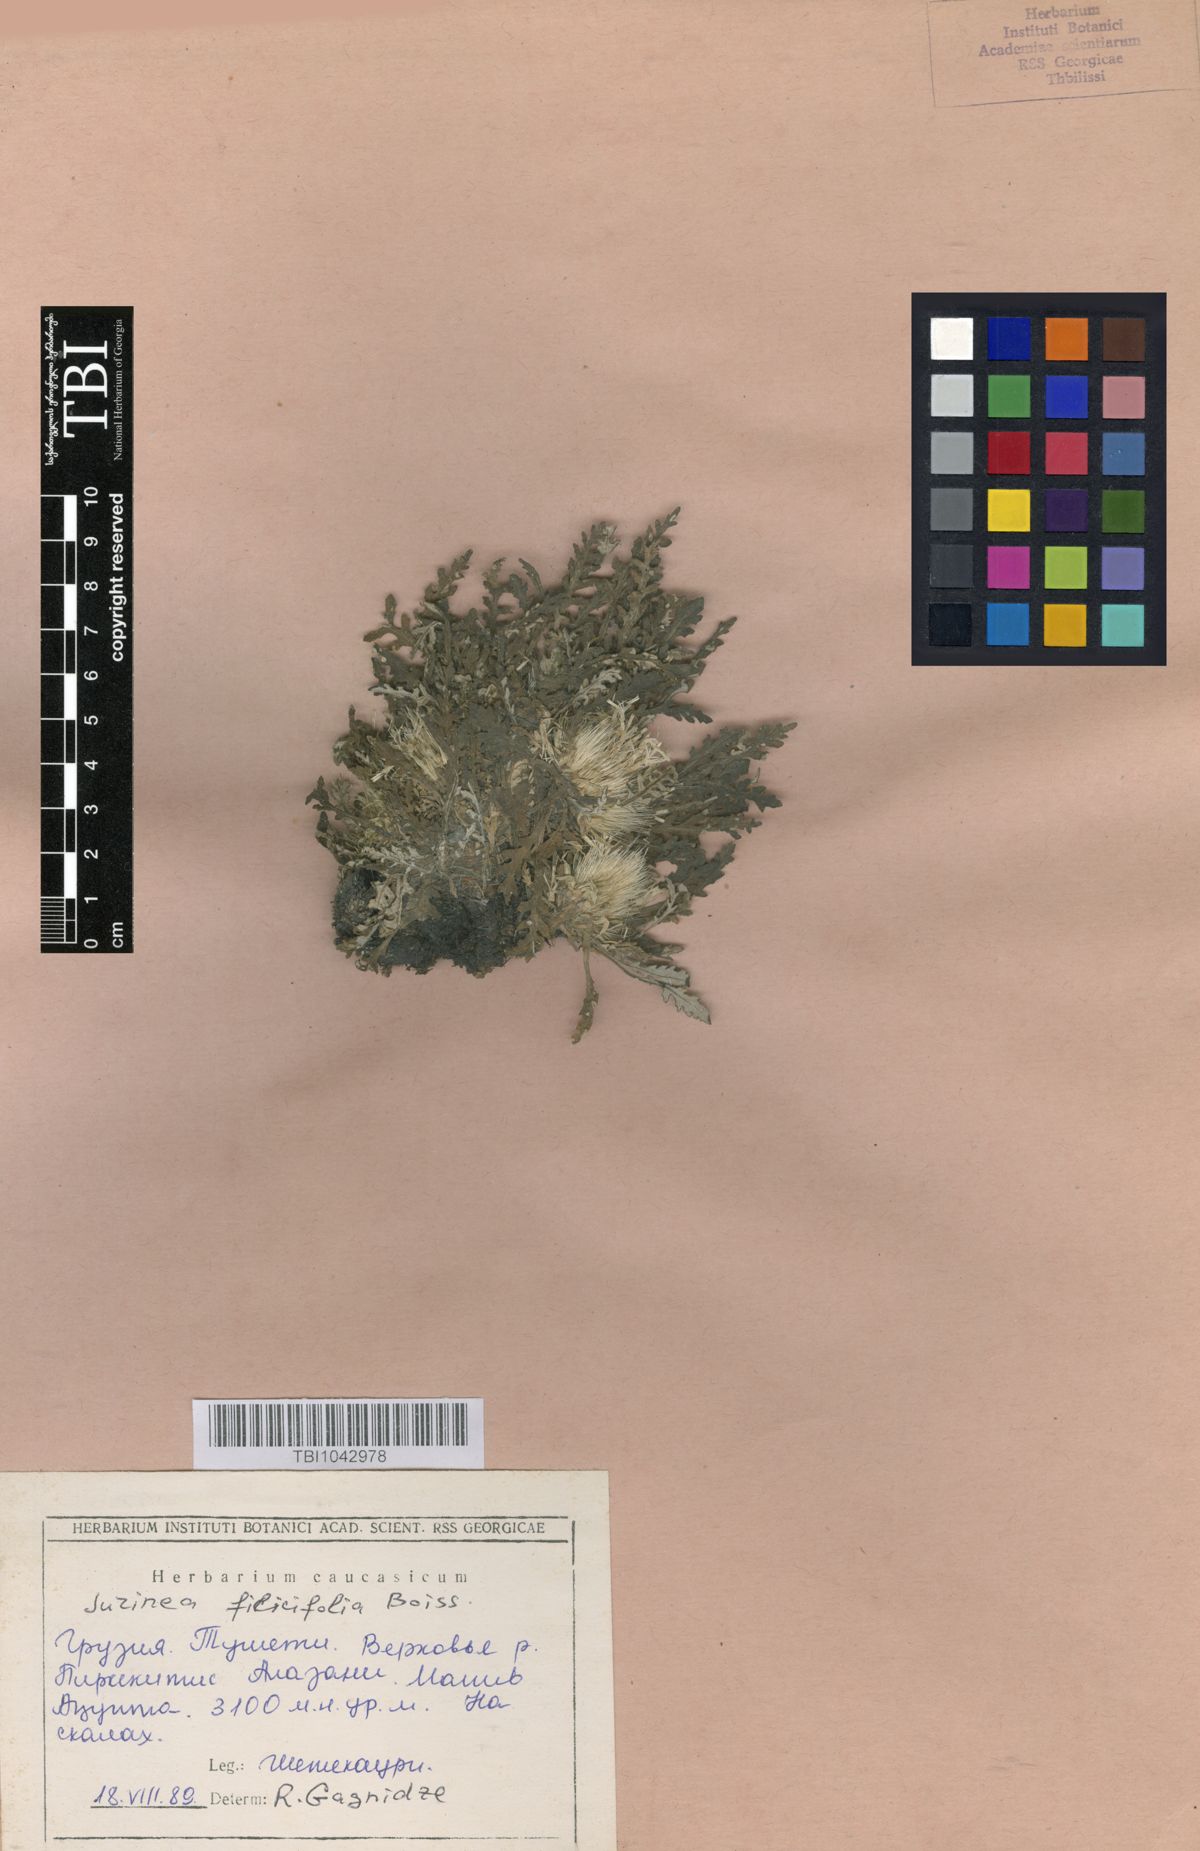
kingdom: Plantae
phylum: Tracheophyta
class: Magnoliopsida
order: Asterales
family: Asteraceae
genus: Jurinea
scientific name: Jurinea filicifolia
